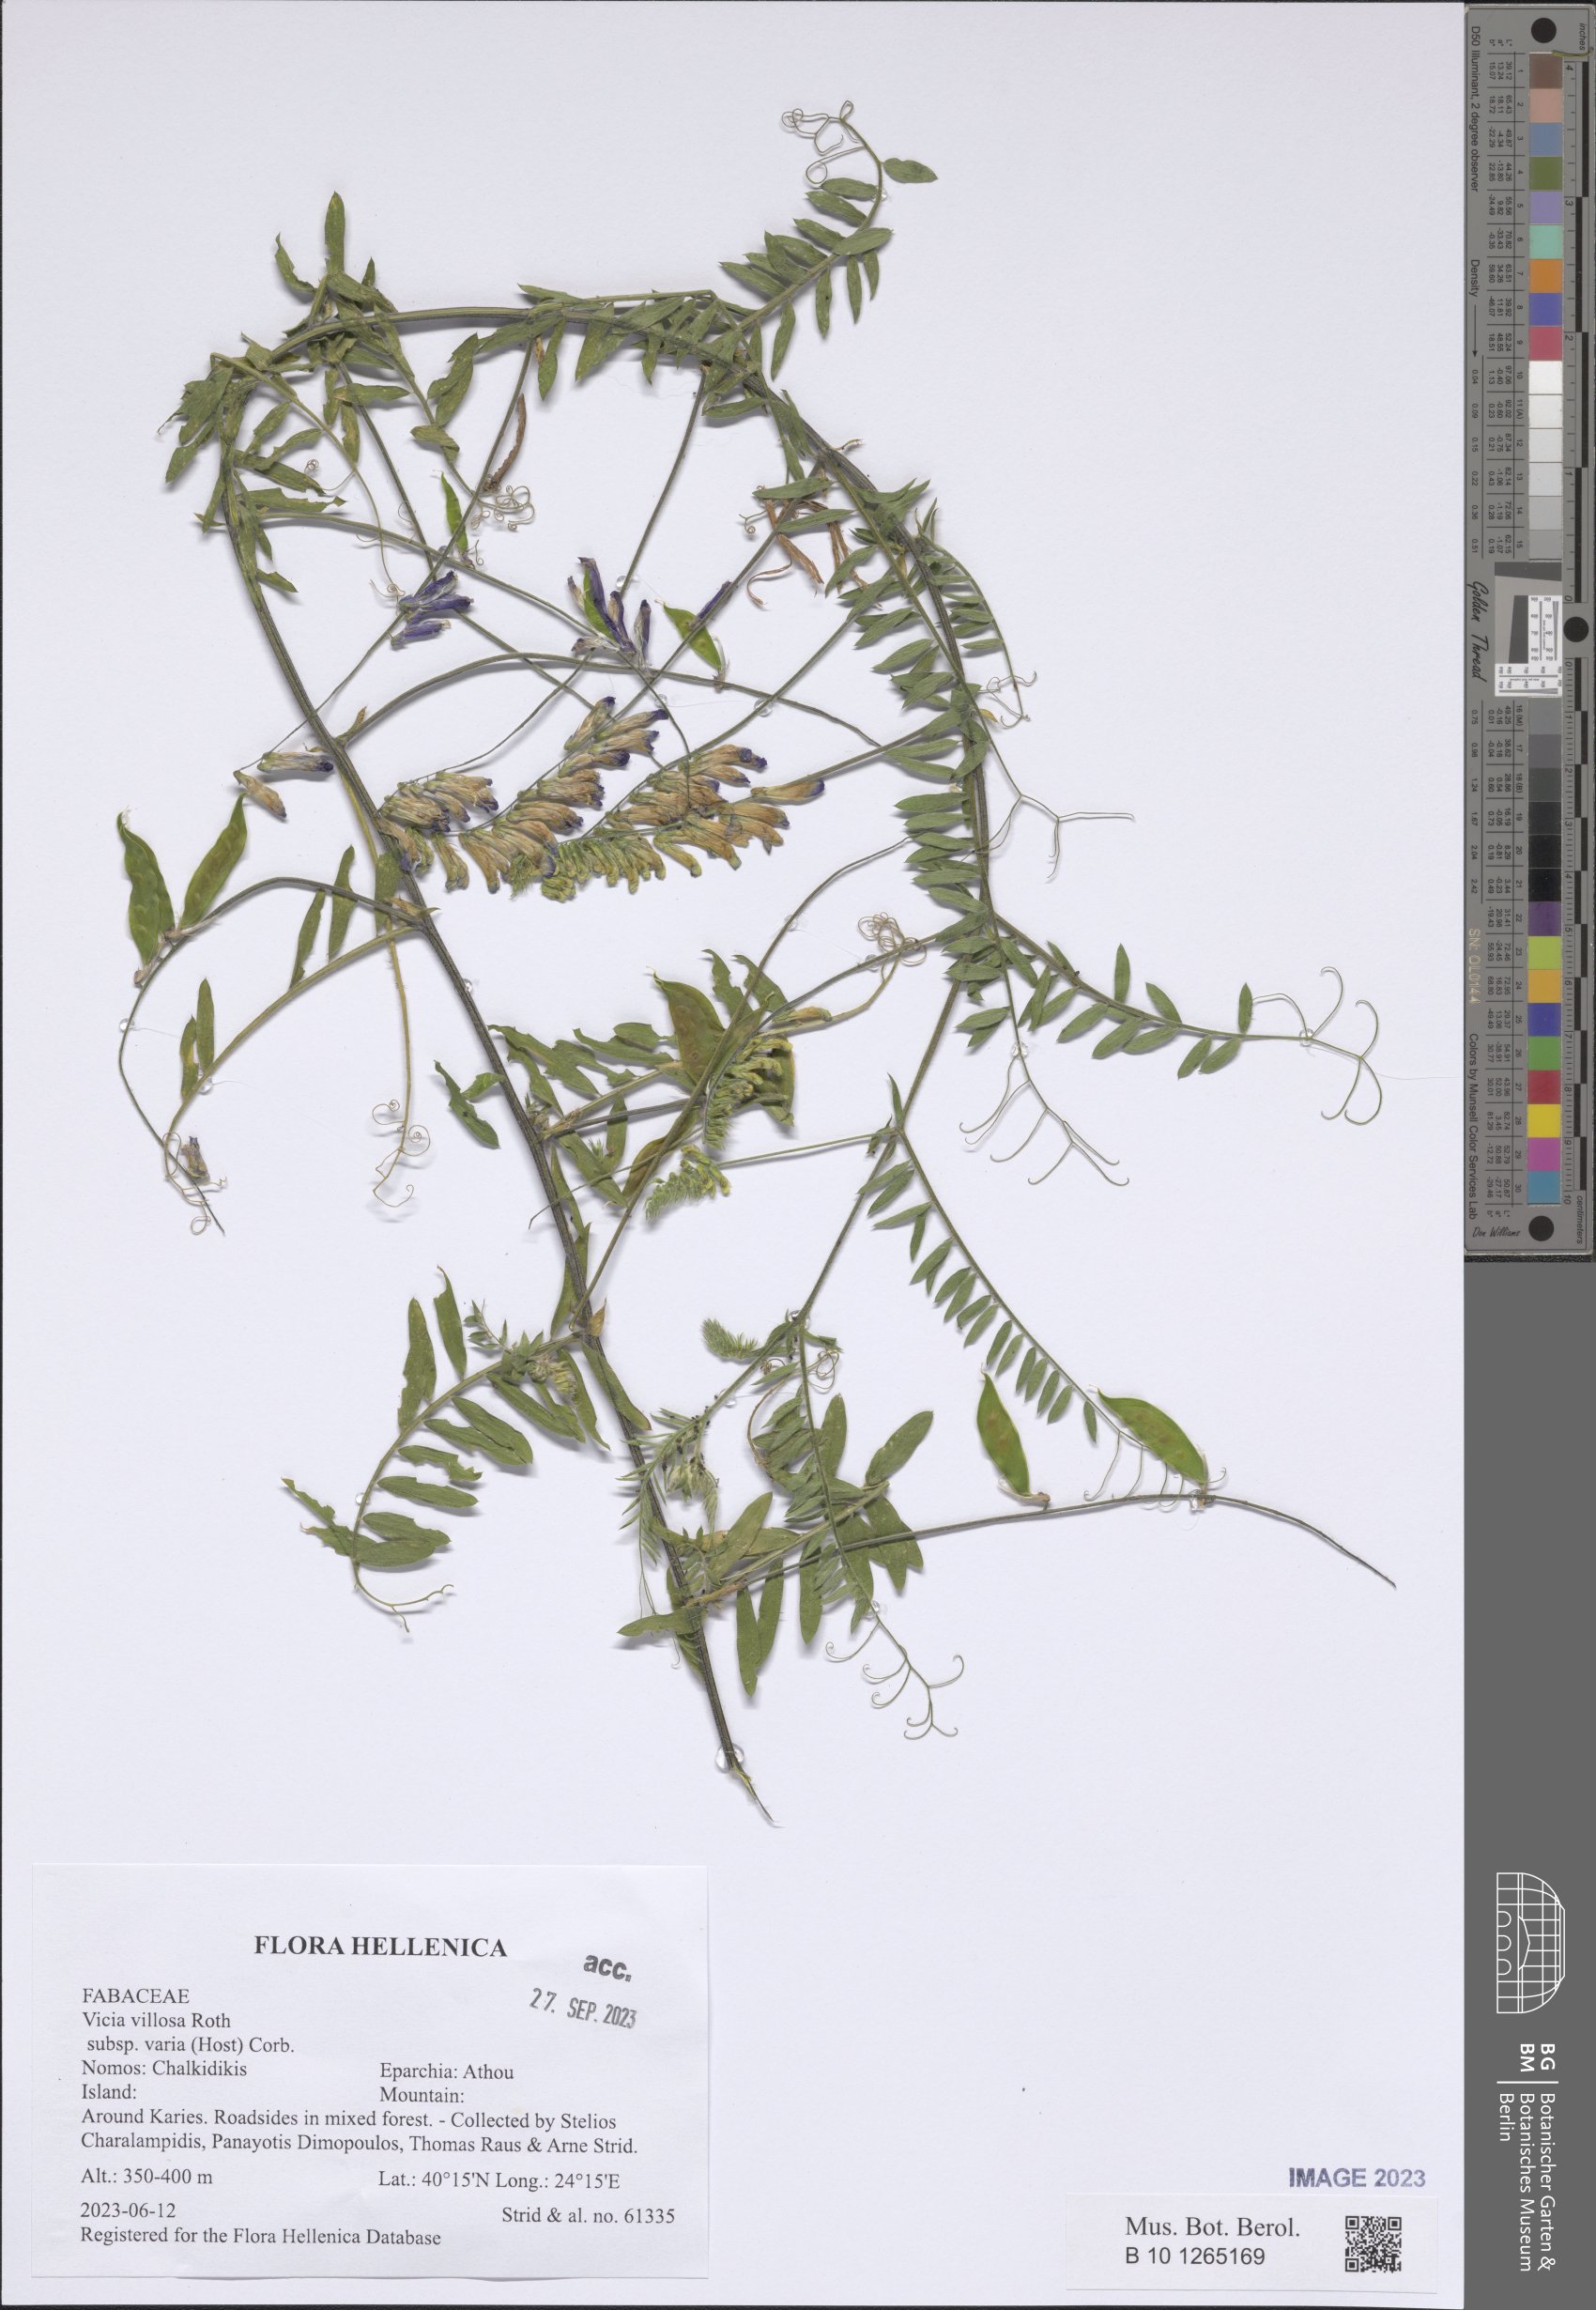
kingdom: Plantae
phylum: Tracheophyta
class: Magnoliopsida
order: Fabales
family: Fabaceae
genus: Vicia
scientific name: Vicia villosa
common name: Fodder vetch
